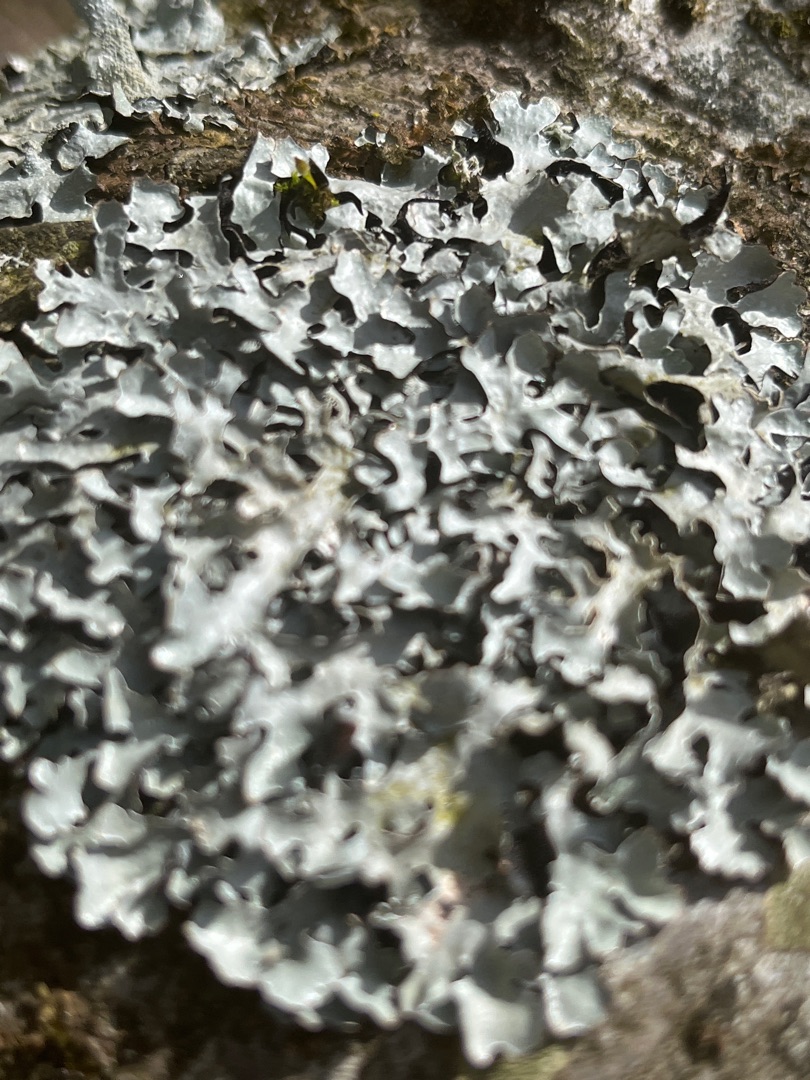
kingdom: Fungi
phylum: Ascomycota
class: Lecanoromycetes
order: Lecanorales
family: Parmeliaceae
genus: Parmelia
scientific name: Parmelia sulcata
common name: Rynket skållav
